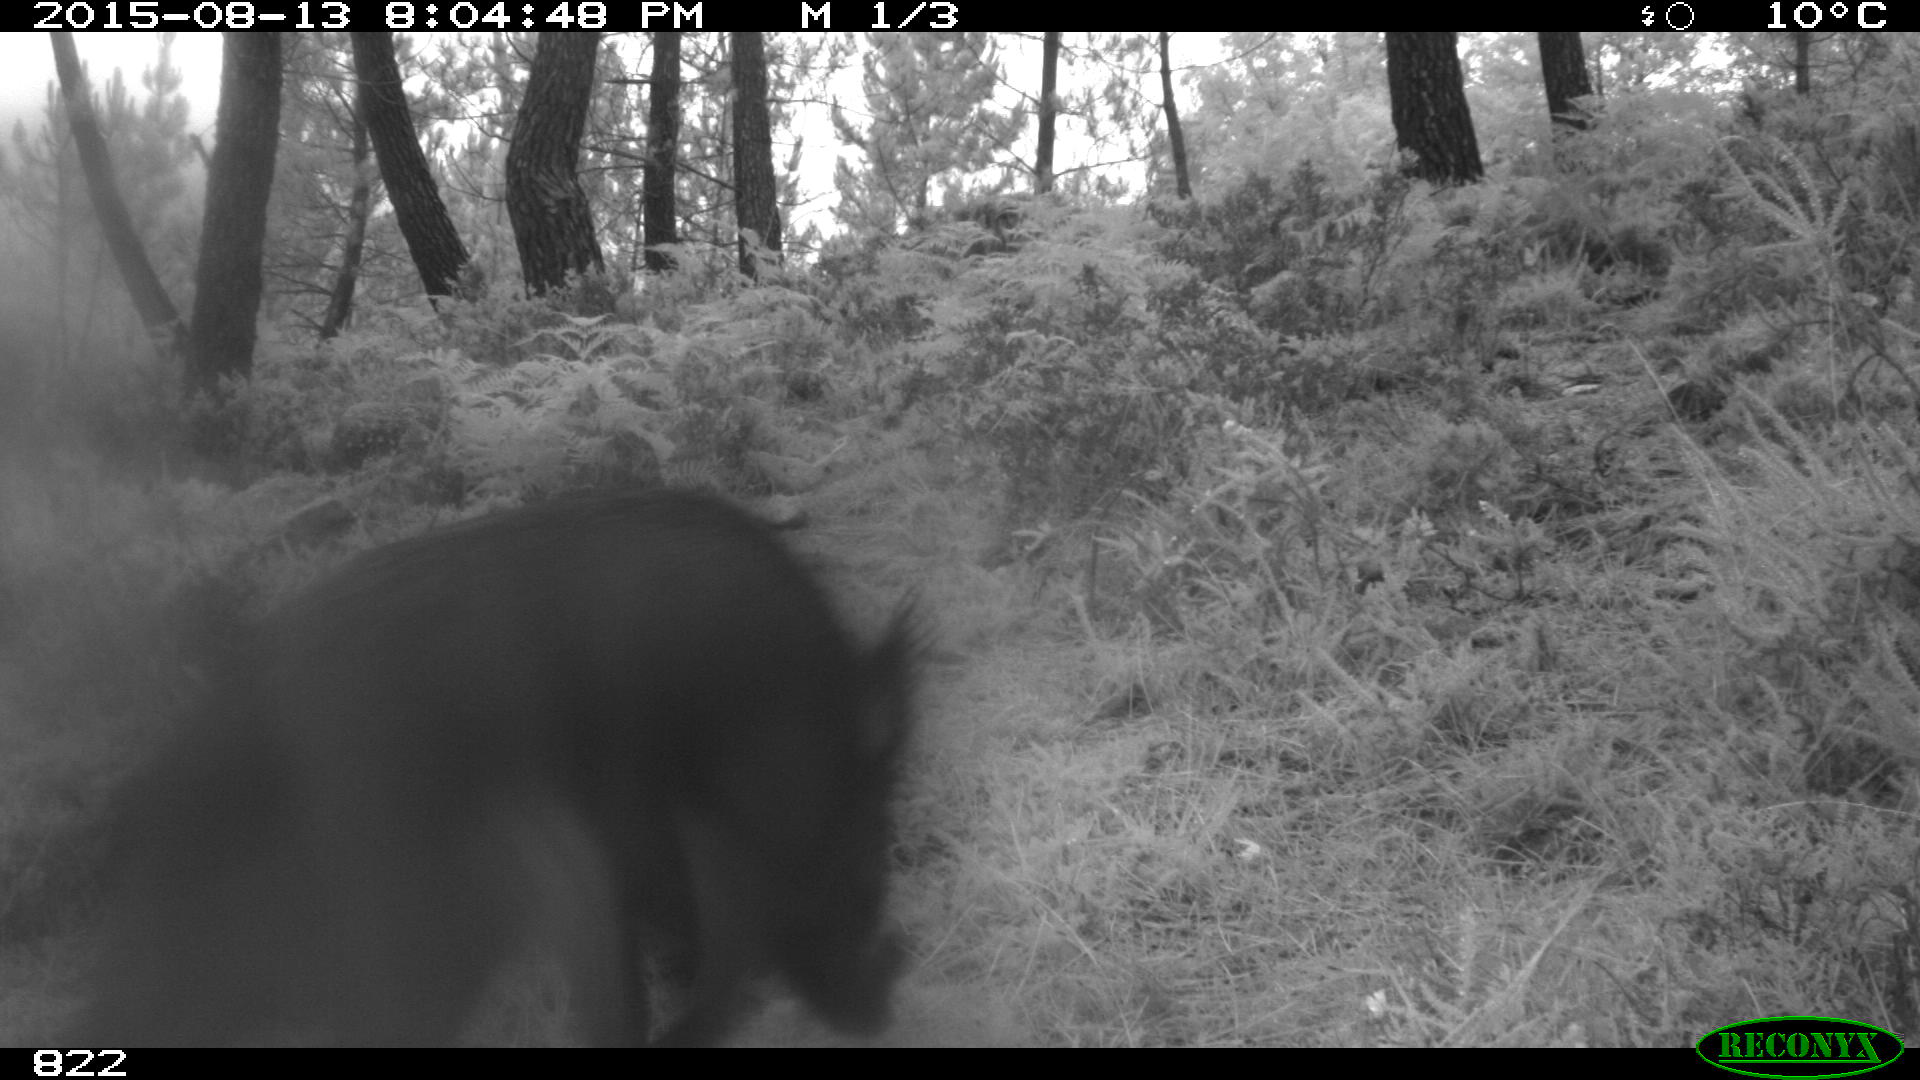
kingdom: Animalia
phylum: Chordata
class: Mammalia
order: Artiodactyla
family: Suidae
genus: Sus
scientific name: Sus scrofa
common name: Wild boar
